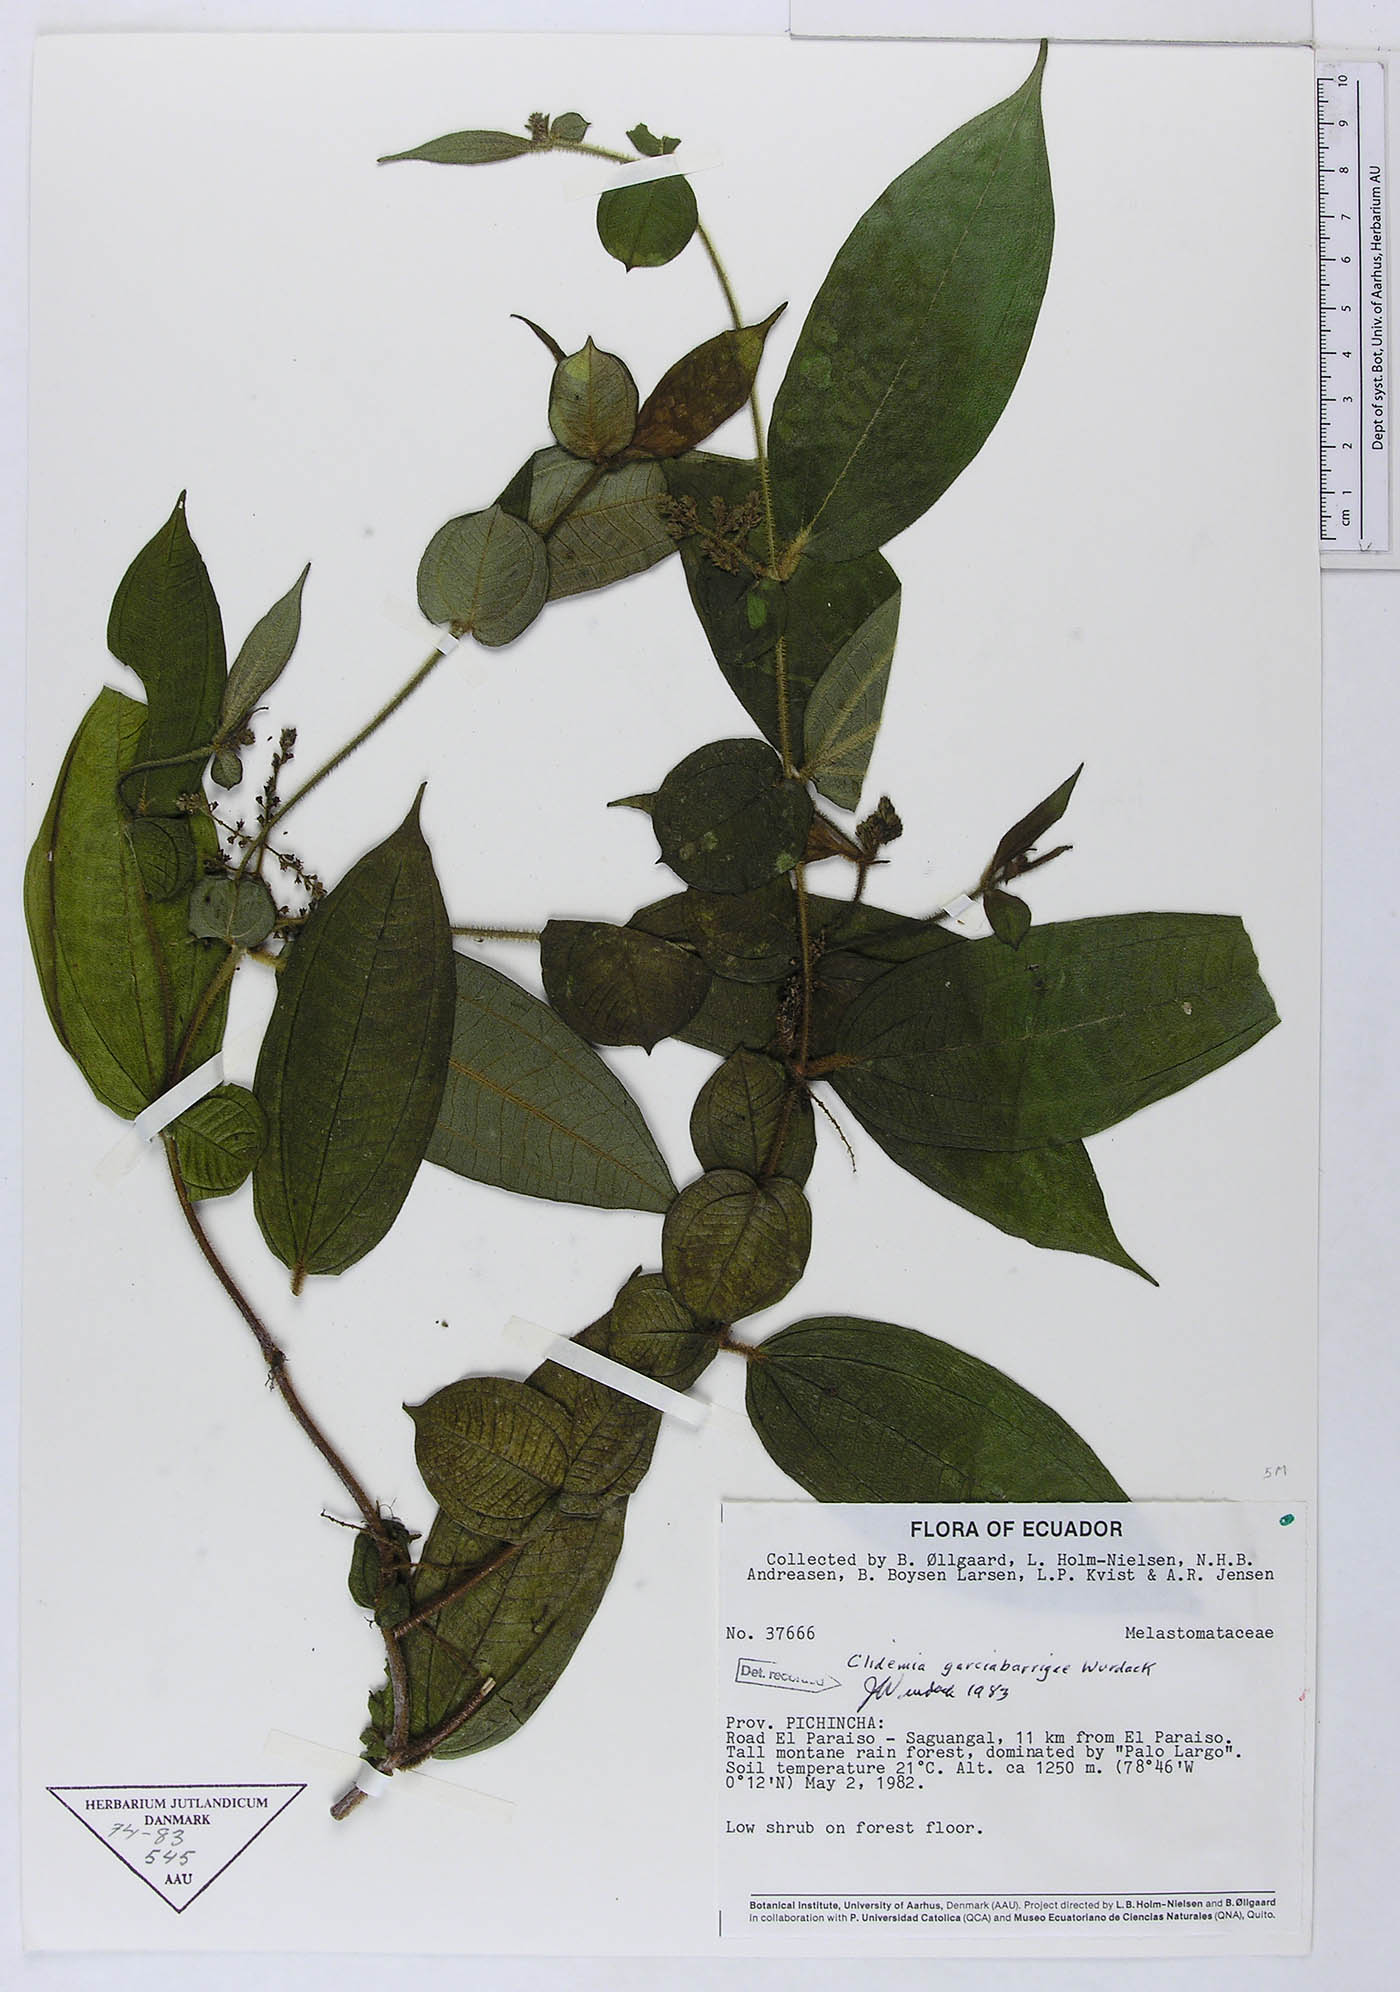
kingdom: Plantae
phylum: Tracheophyta
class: Magnoliopsida
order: Myrtales
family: Melastomataceae
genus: Miconia
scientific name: Miconia garcia-barrigae
